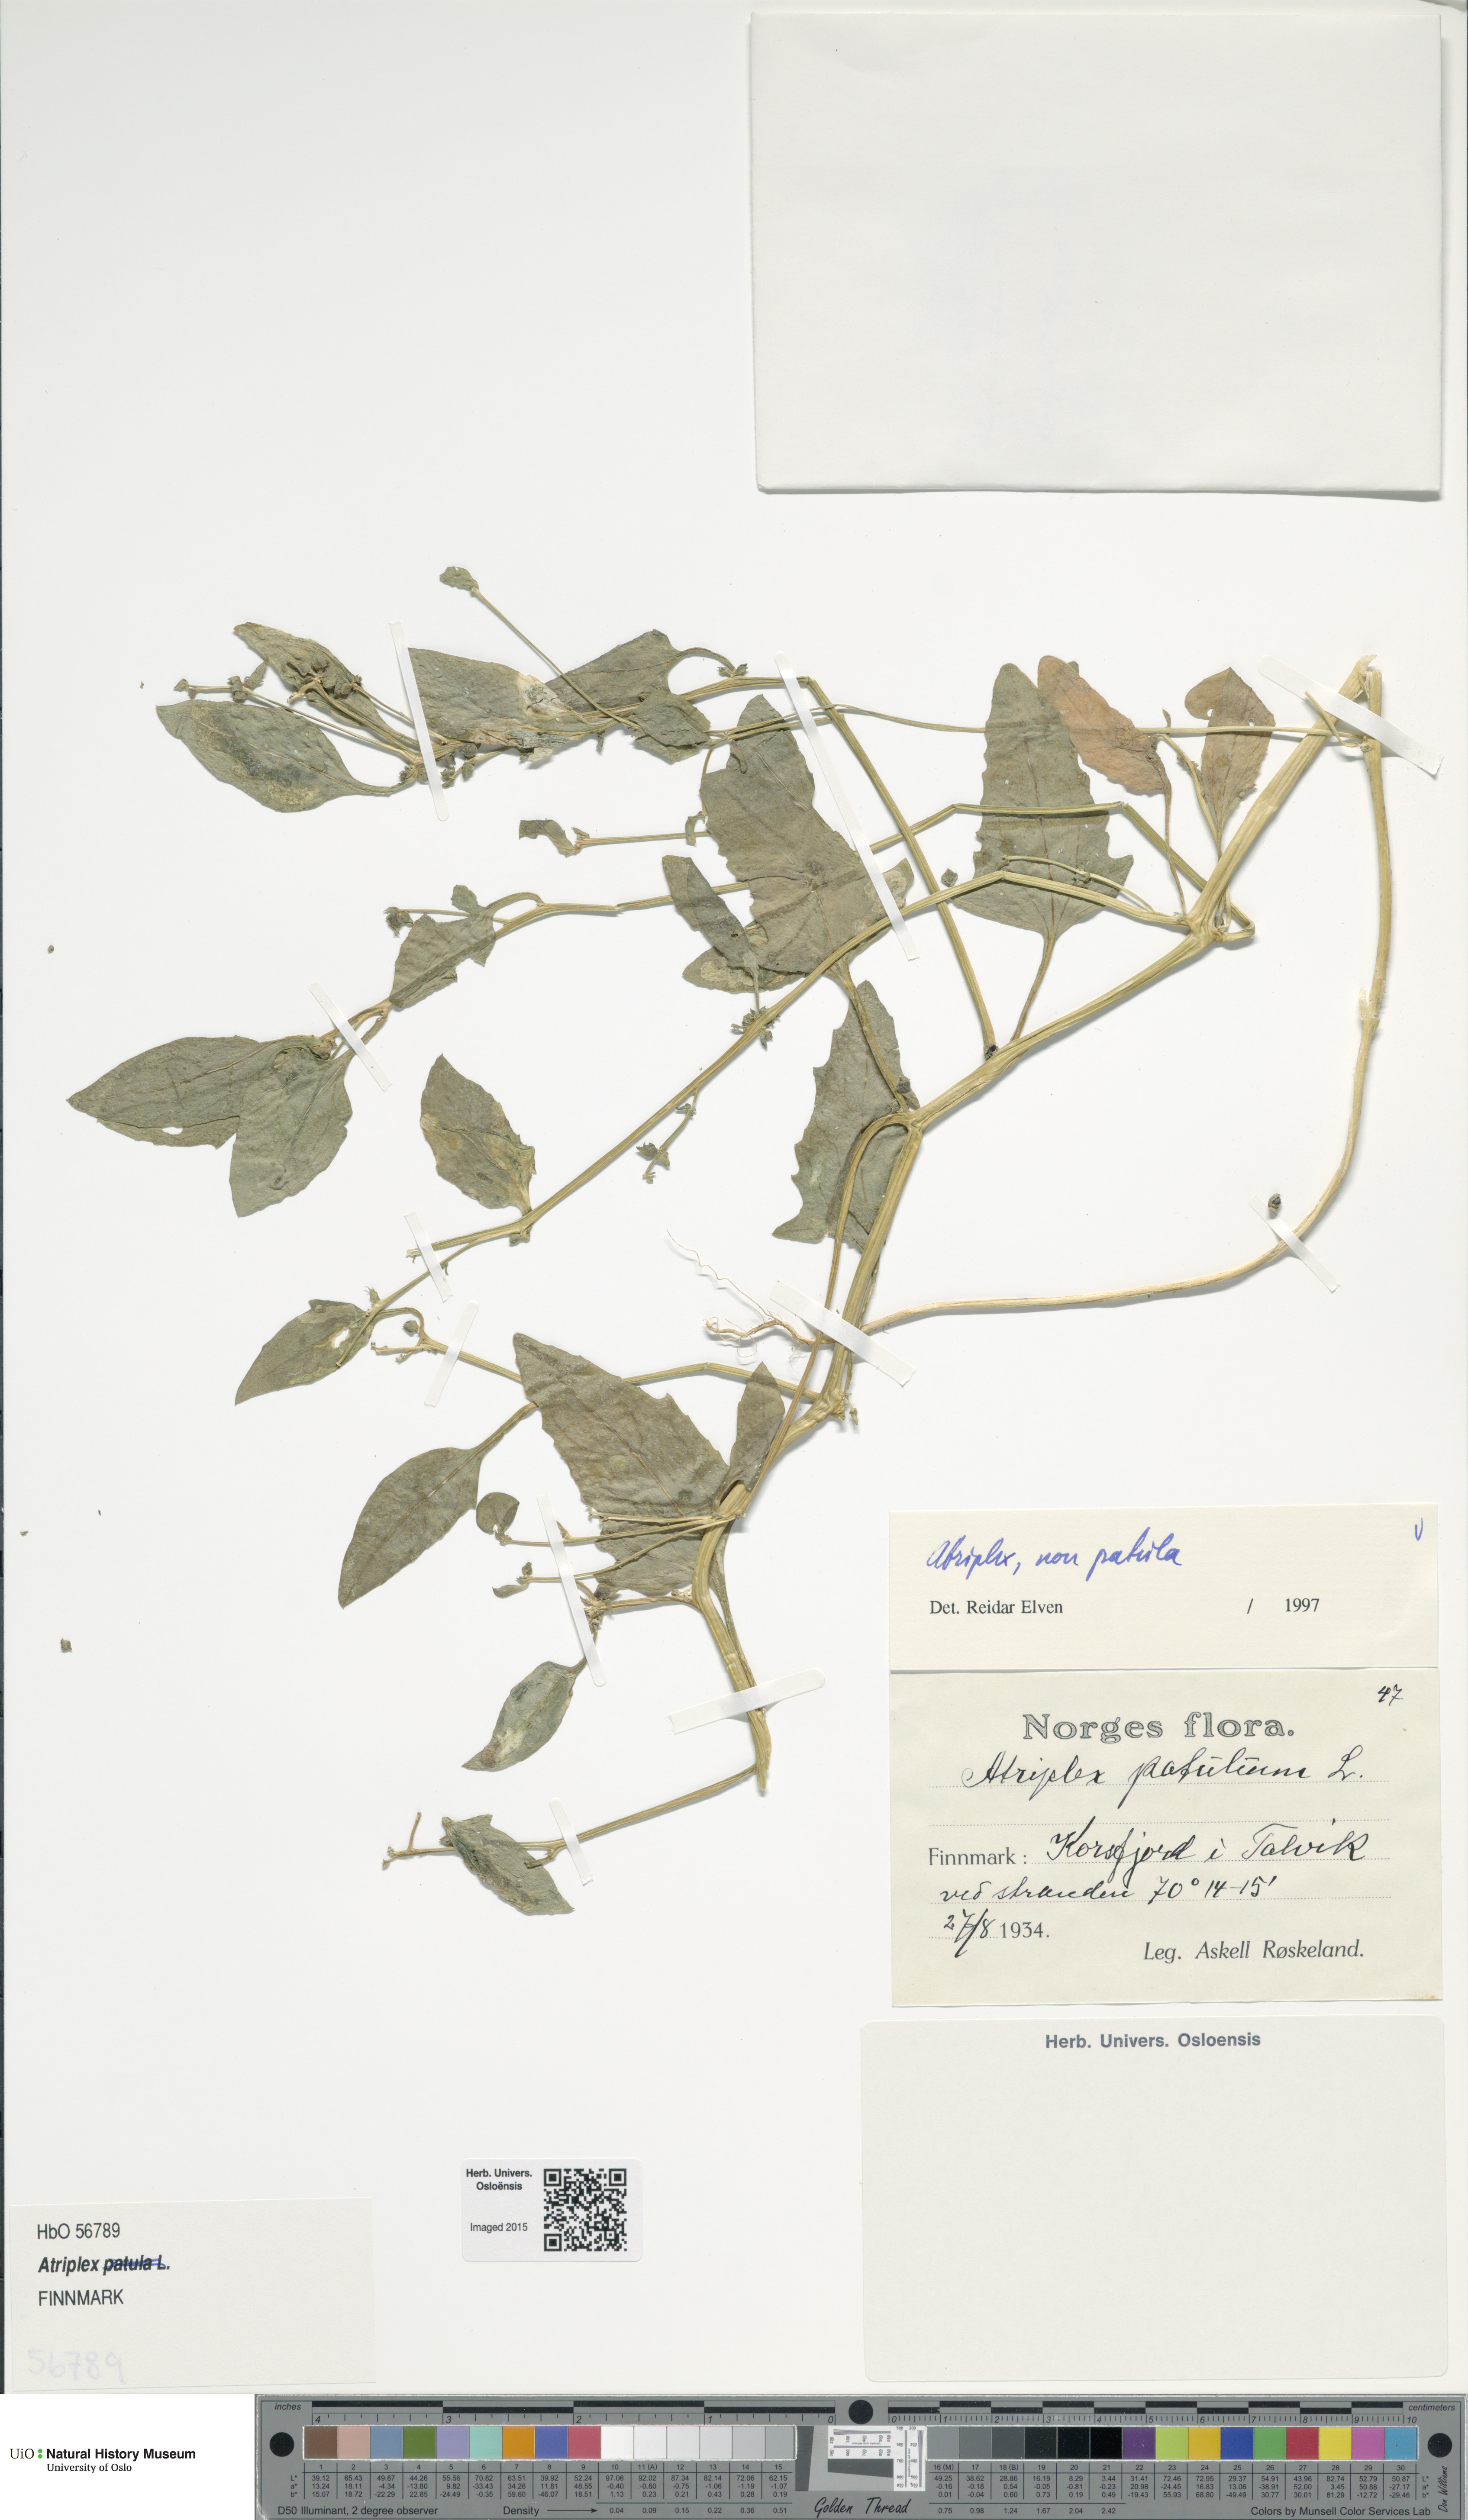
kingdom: Plantae
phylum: Tracheophyta
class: Magnoliopsida
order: Caryophyllales
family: Amaranthaceae
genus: Atriplex
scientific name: Atriplex
